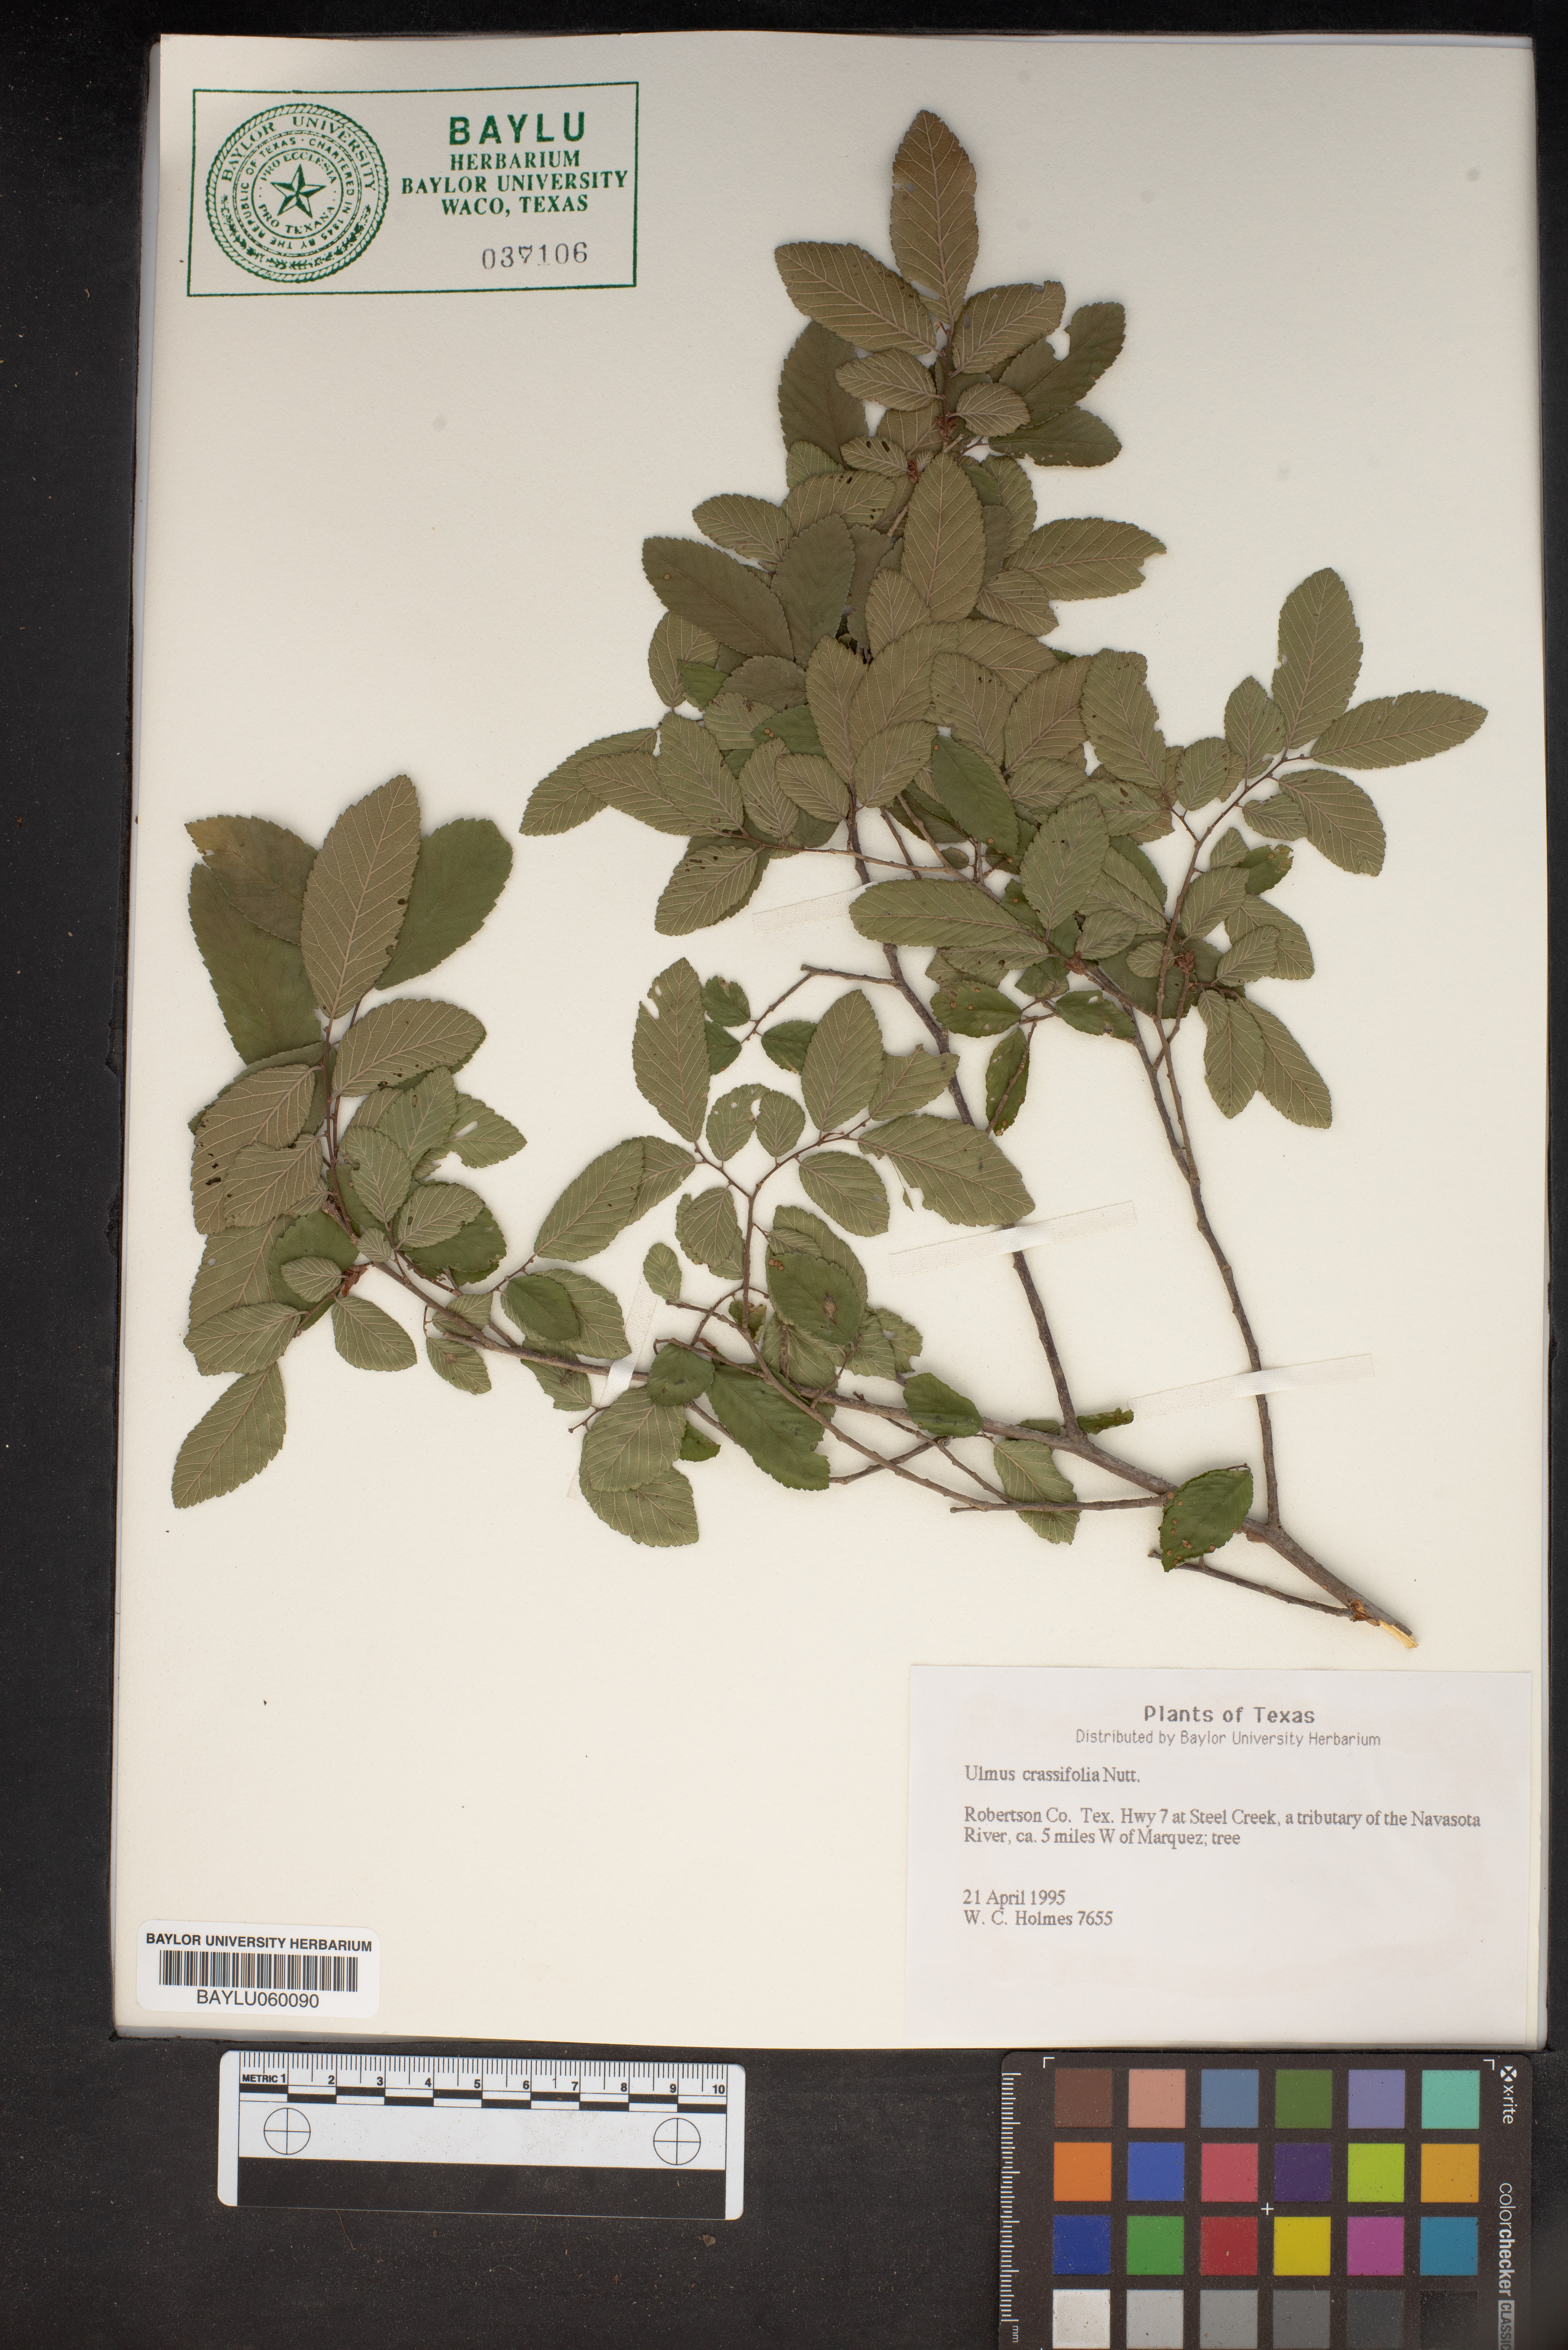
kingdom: Plantae
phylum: Tracheophyta
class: Magnoliopsida
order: Rosales
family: Ulmaceae
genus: Ulmus
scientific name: Ulmus crassifolia
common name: Basket elm
